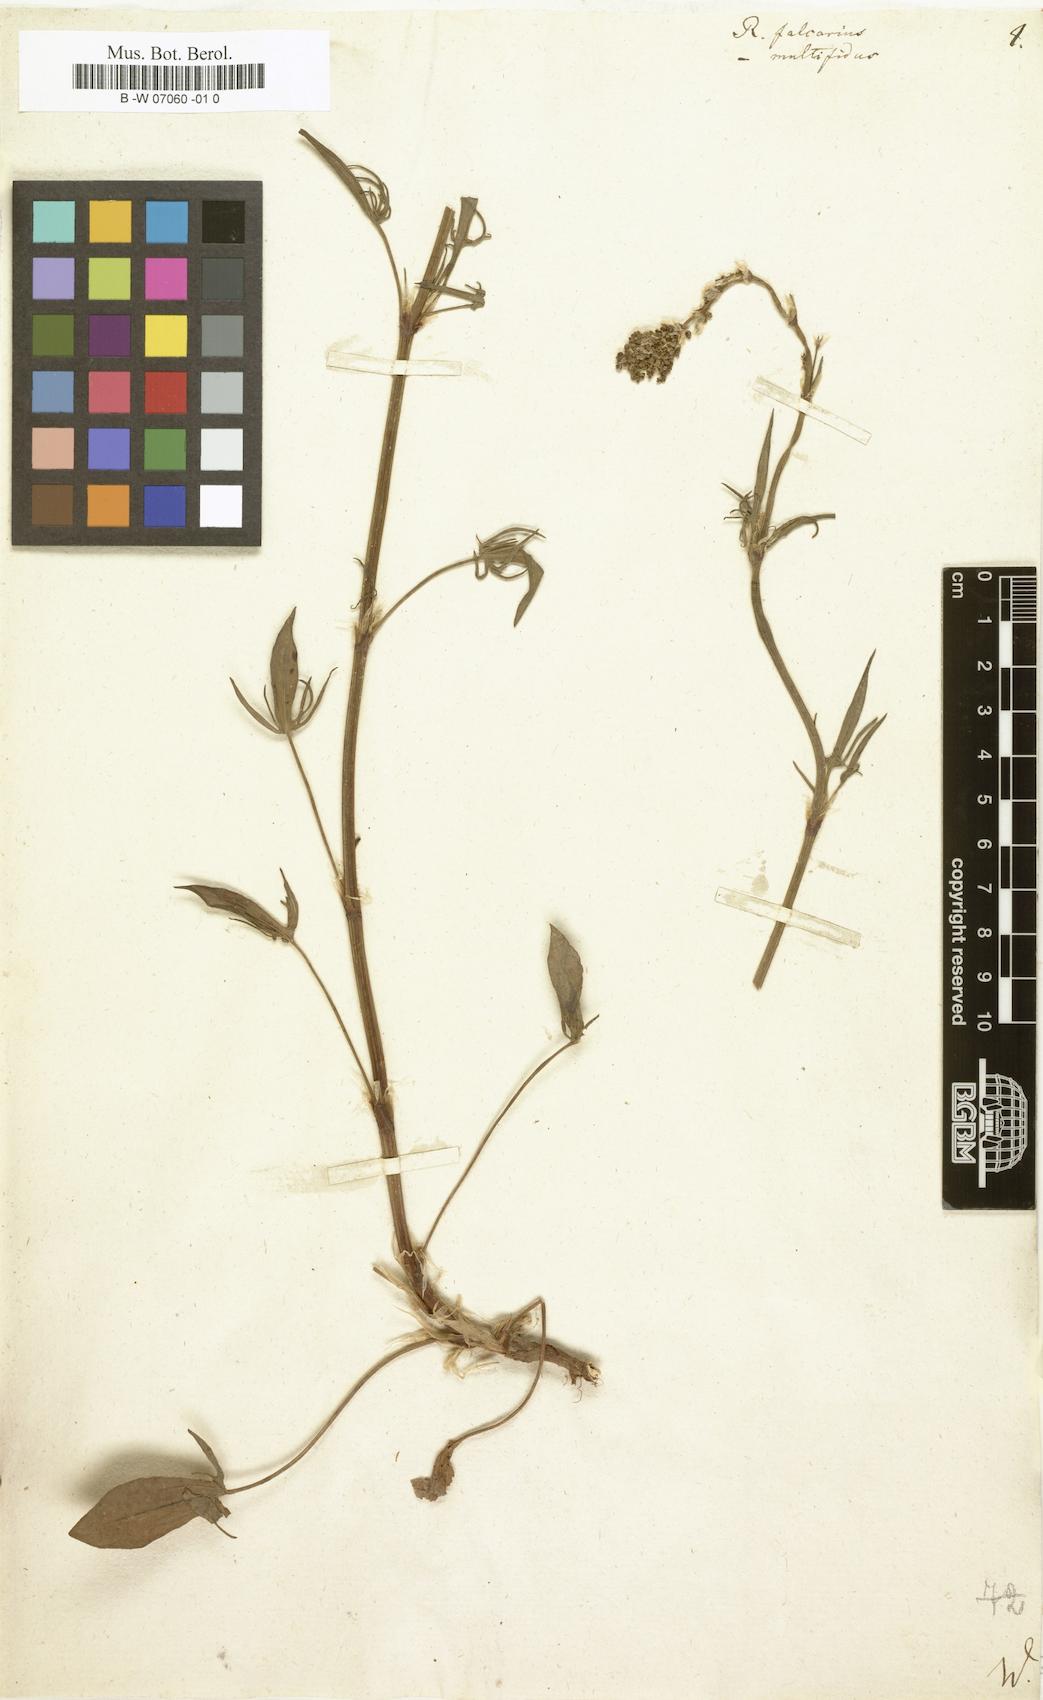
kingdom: Plantae
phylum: Tracheophyta
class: Magnoliopsida
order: Caryophyllales
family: Polygonaceae
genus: Rumex
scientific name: Rumex acetosella
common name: Common sheep sorrel
